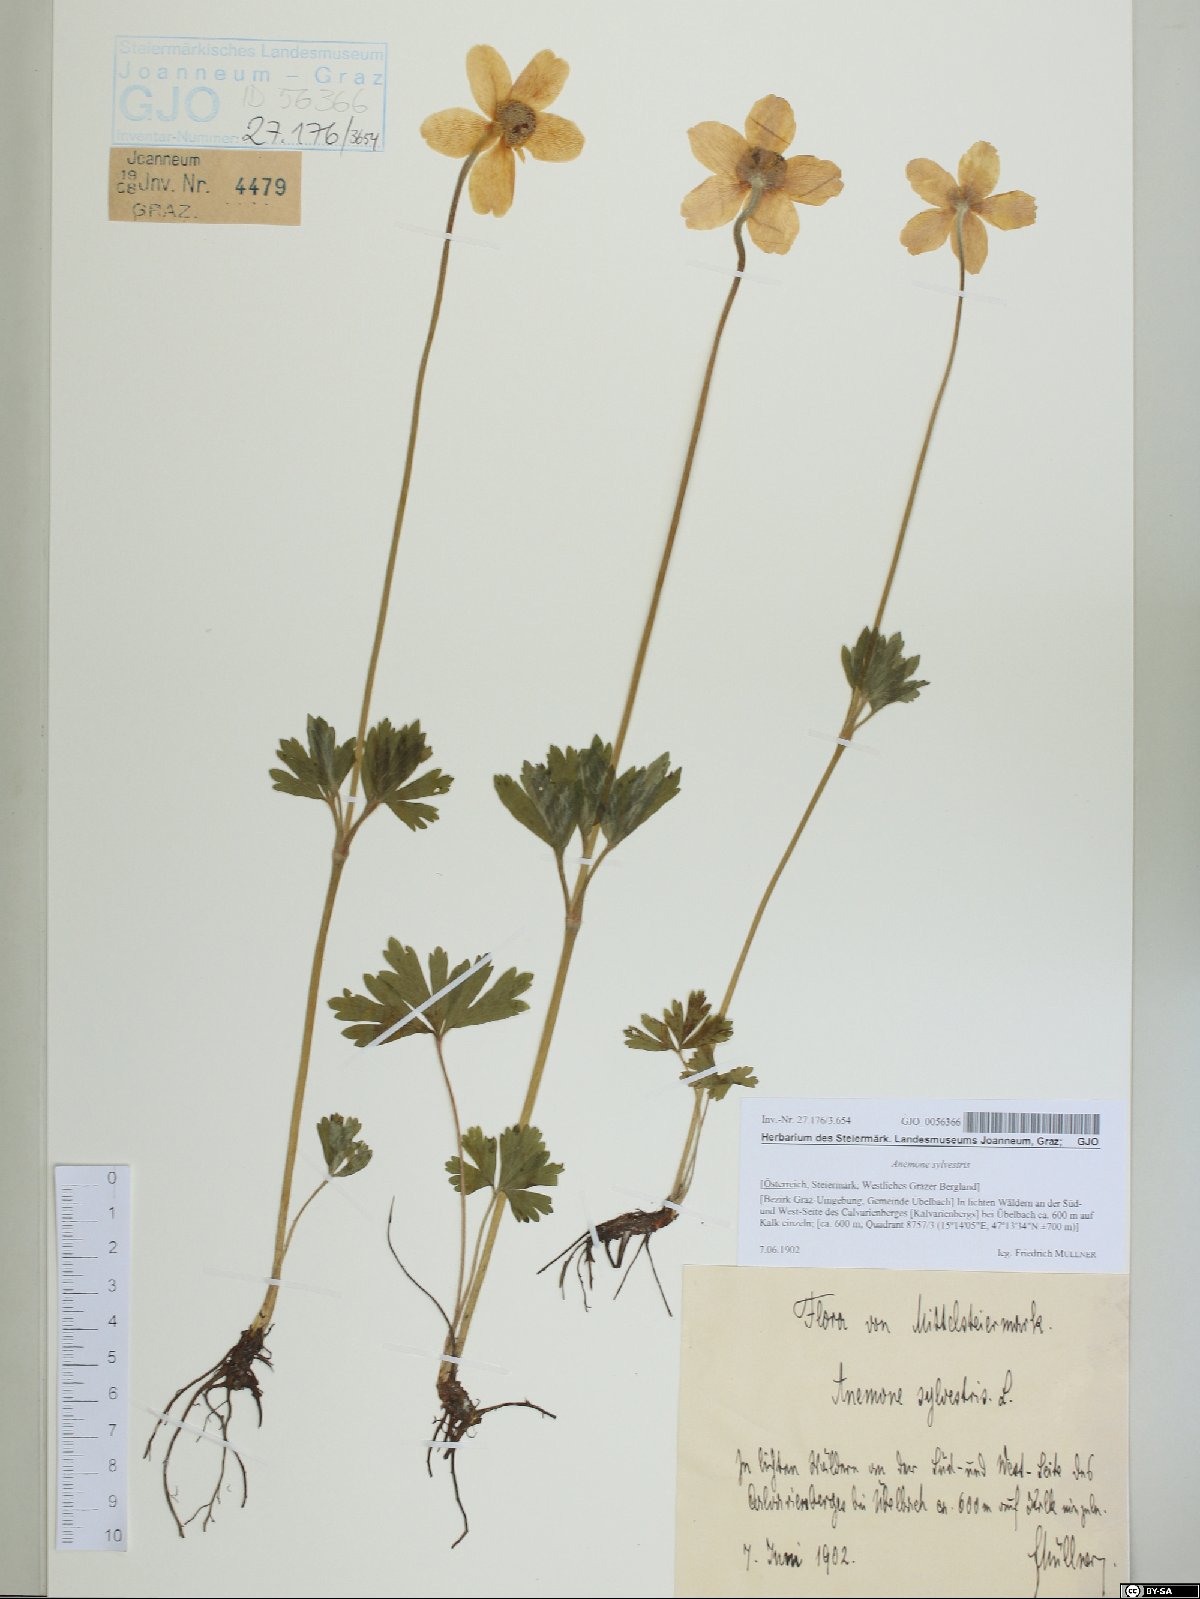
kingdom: Plantae
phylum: Tracheophyta
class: Magnoliopsida
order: Ranunculales
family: Ranunculaceae
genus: Anemone
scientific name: Anemone sylvestris
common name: Snowdrop anemone
